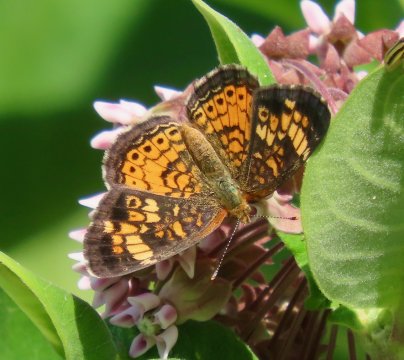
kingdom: Animalia
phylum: Arthropoda
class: Insecta
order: Lepidoptera
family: Nymphalidae
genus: Phyciodes
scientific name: Phyciodes tharos
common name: Pearl Crescent
